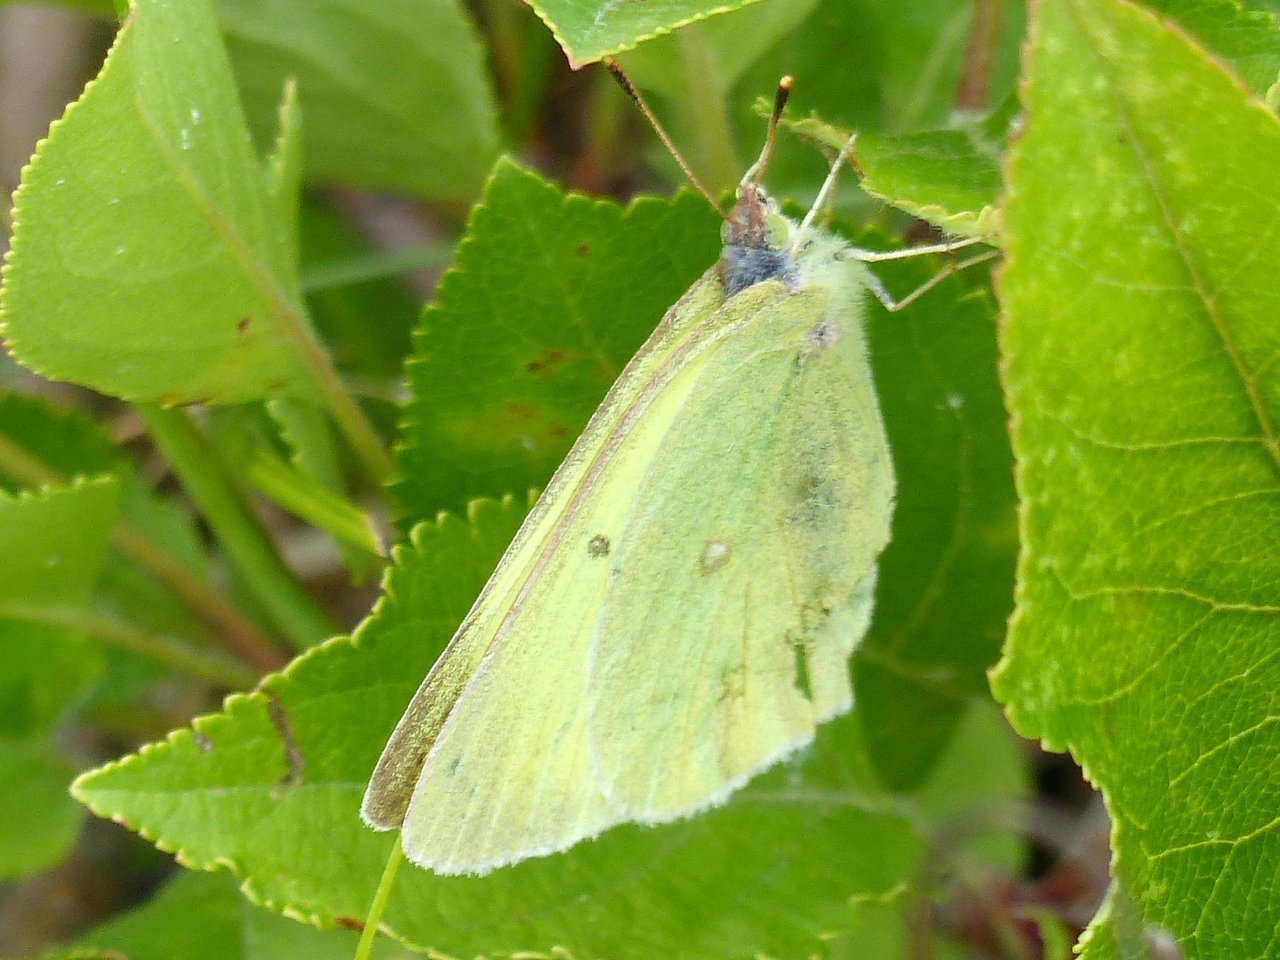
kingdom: Animalia
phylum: Arthropoda
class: Insecta
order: Lepidoptera
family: Pieridae
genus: Colias
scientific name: Colias interior
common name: Pink-edged Sulphur
